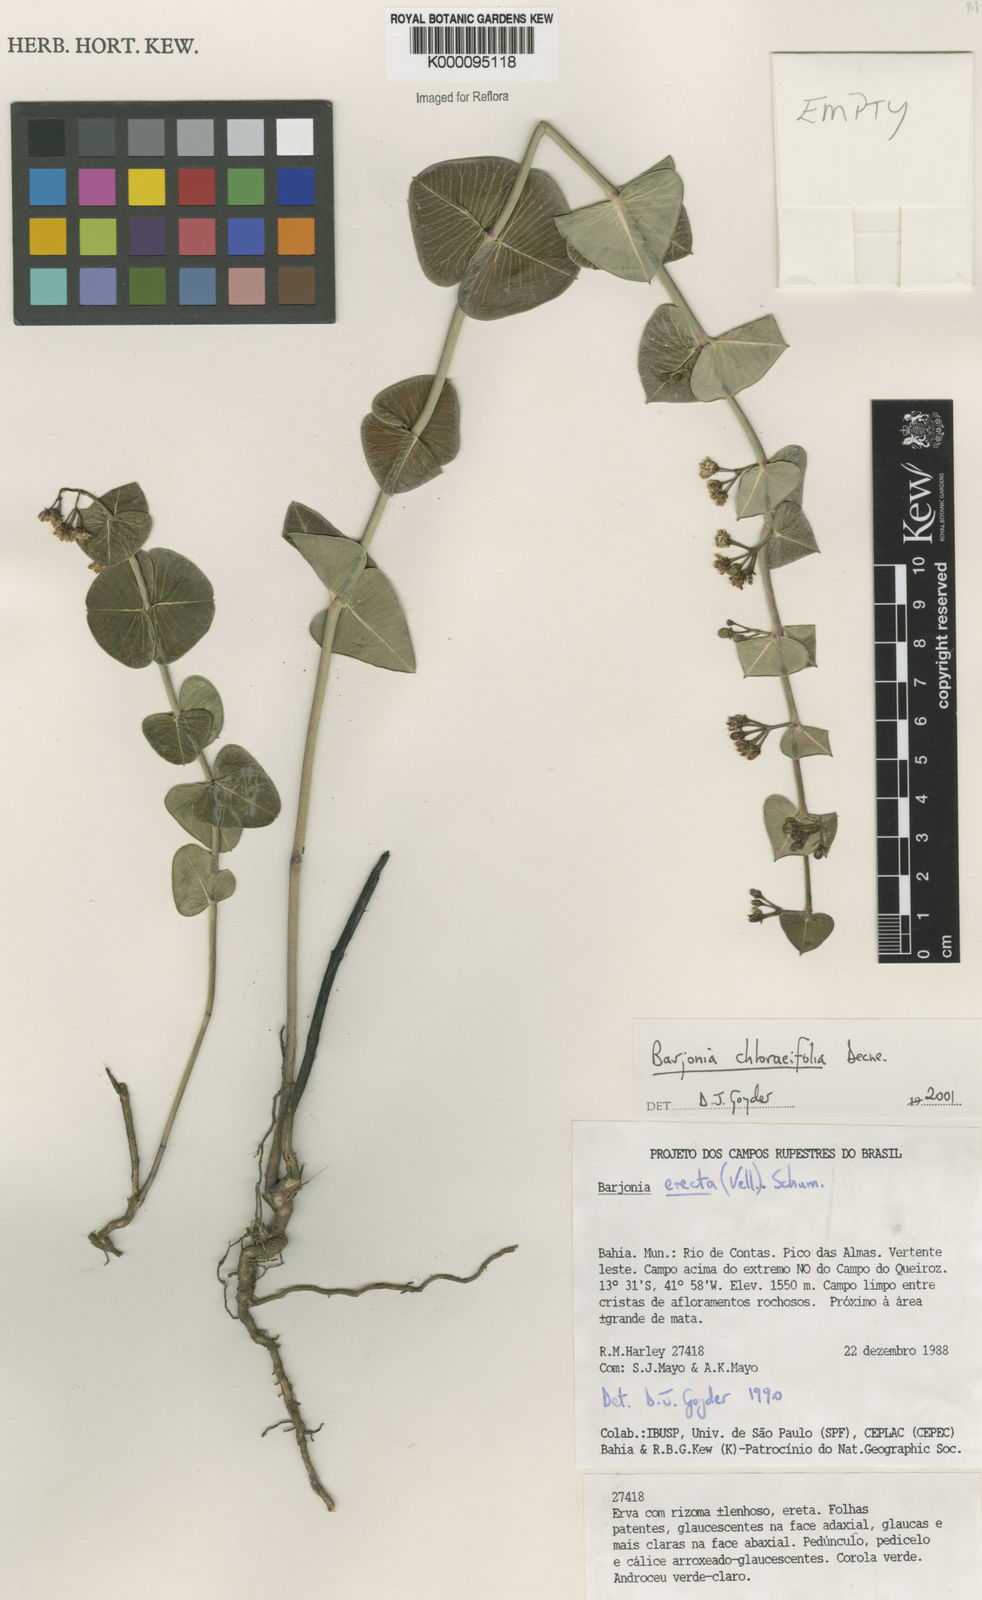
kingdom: Plantae
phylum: Tracheophyta
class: Magnoliopsida
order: Gentianales
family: Apocynaceae
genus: Barjonia
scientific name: Barjonia
